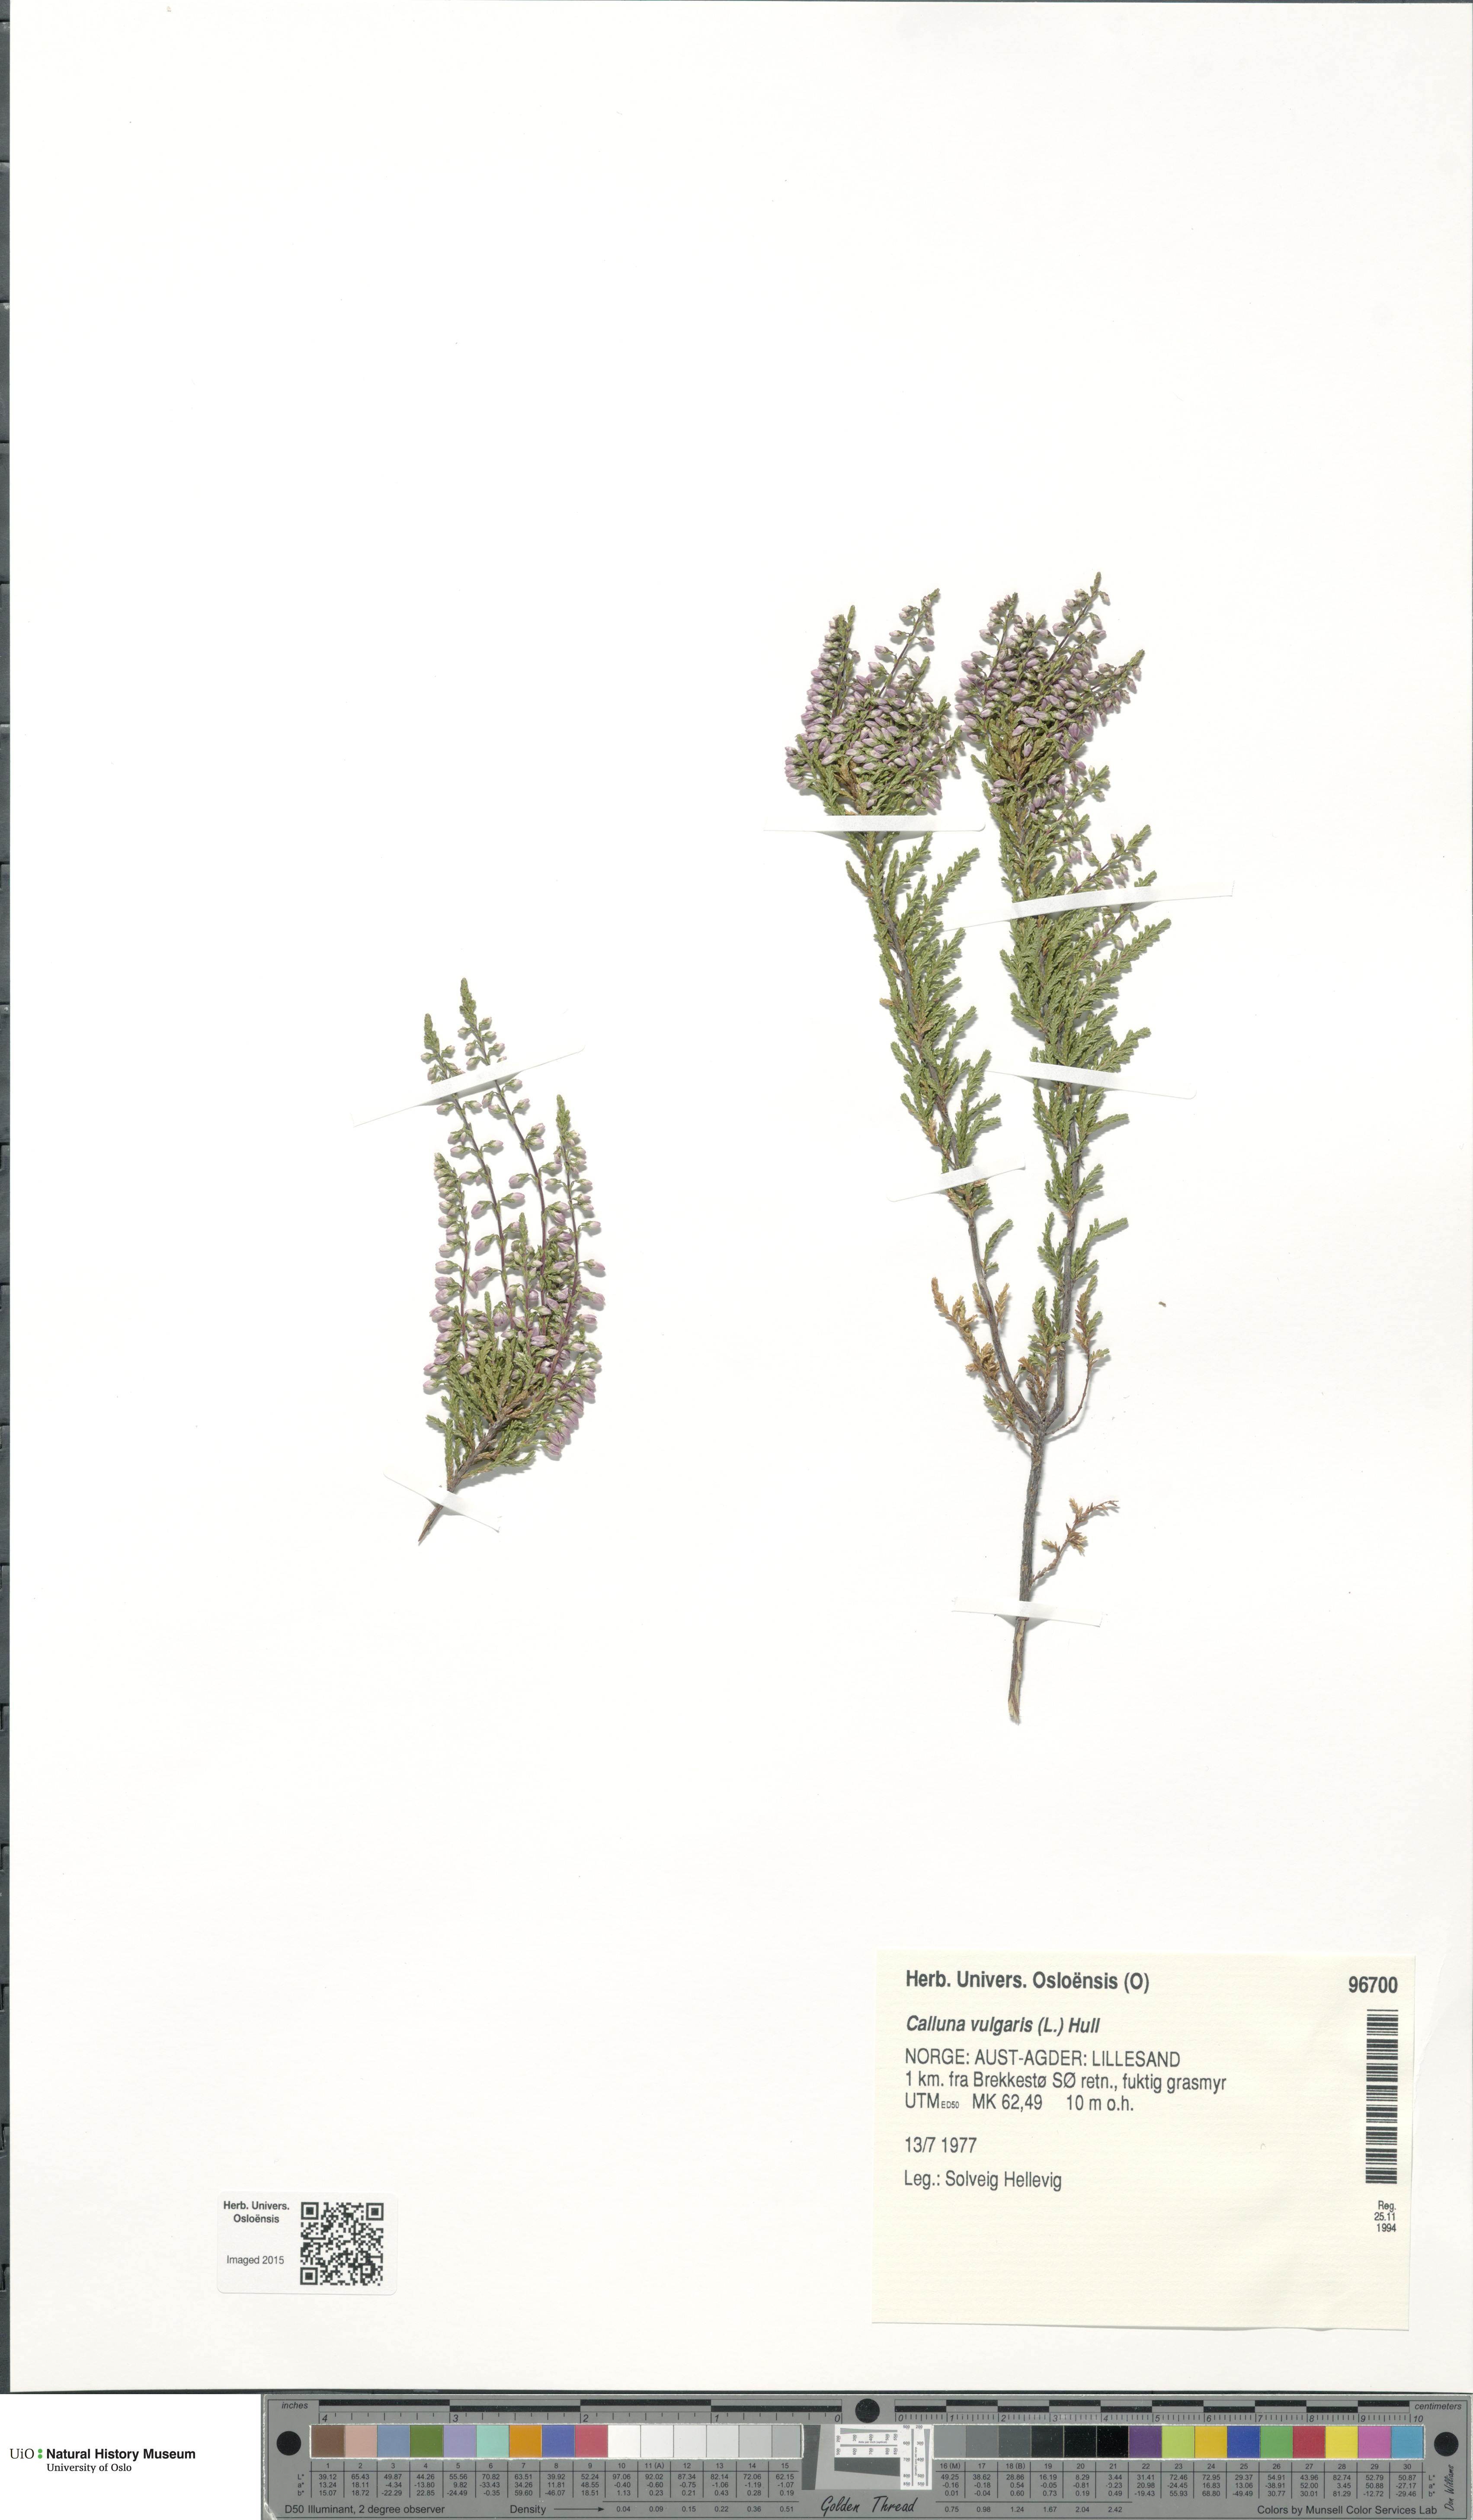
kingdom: Plantae
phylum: Tracheophyta
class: Magnoliopsida
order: Ericales
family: Ericaceae
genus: Calluna
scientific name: Calluna vulgaris
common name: Heather
